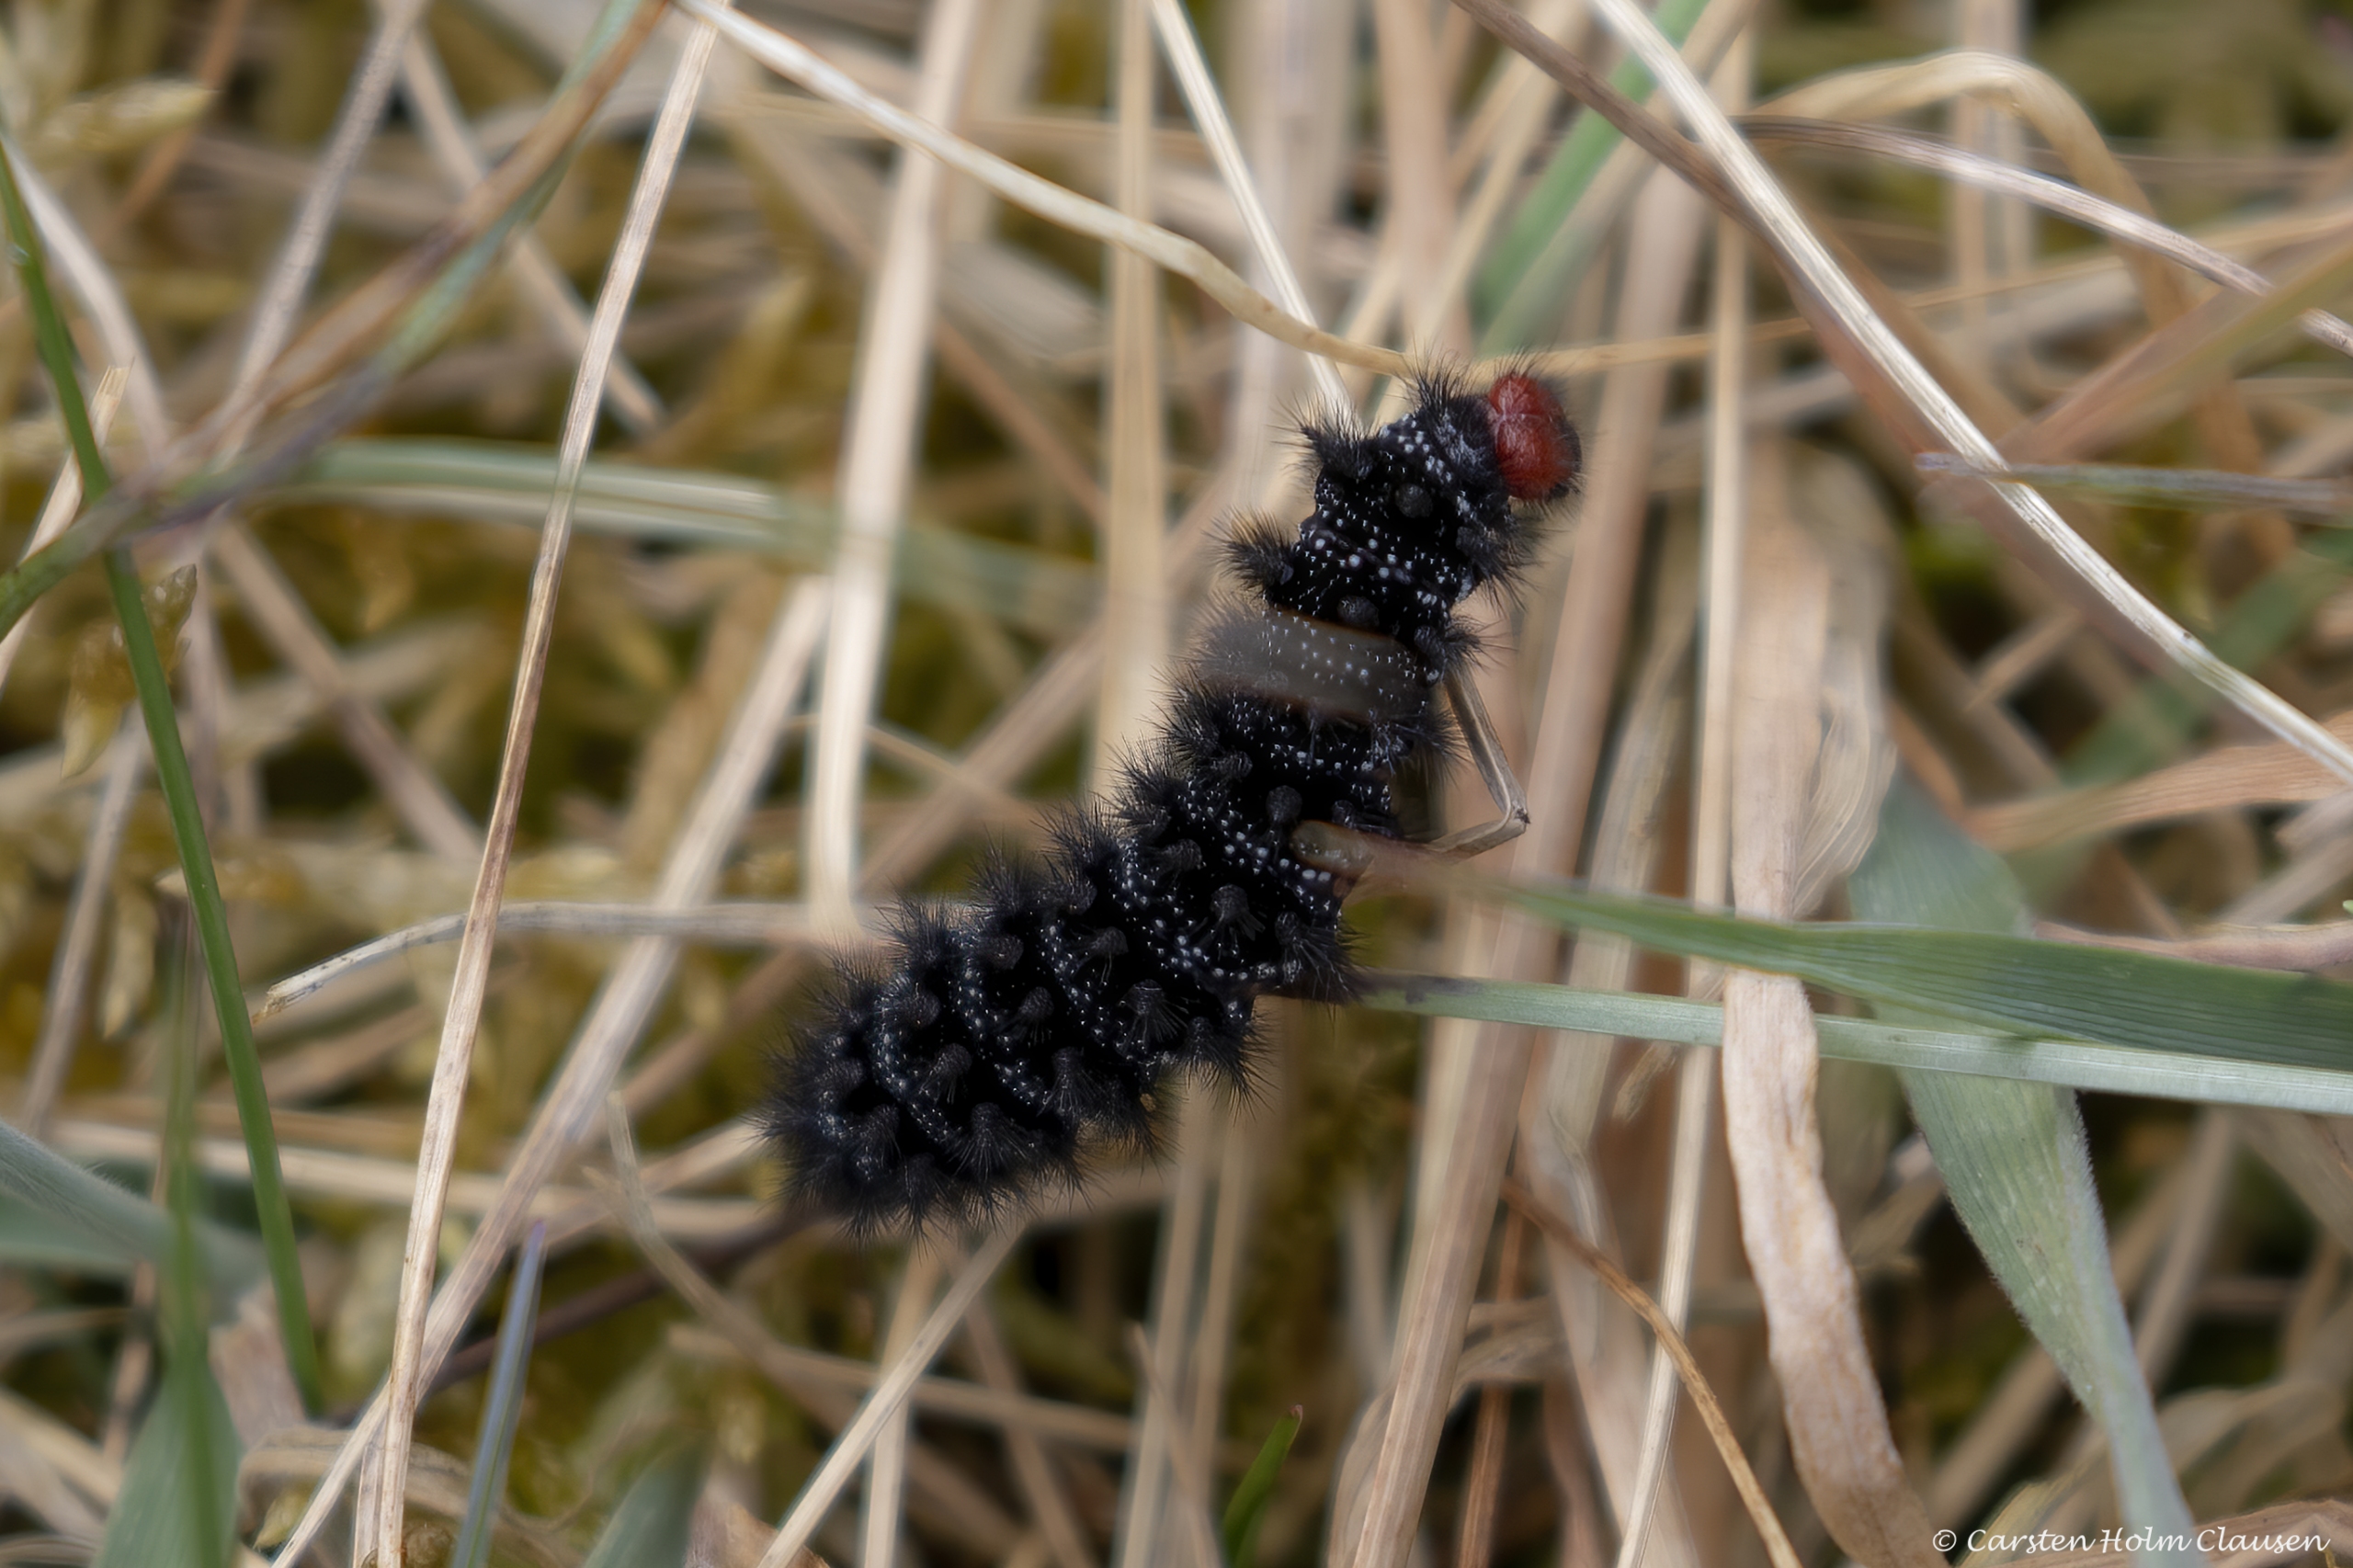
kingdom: Animalia
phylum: Arthropoda
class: Insecta
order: Lepidoptera
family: Nymphalidae
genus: Melitaea
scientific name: Melitaea cinxia
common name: Okkergul pletvinge
